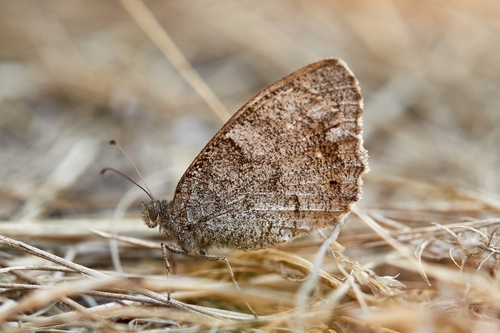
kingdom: Animalia
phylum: Arthropoda
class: Insecta
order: Lepidoptera
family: Nymphalidae
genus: Hipparchia
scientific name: Hipparchia statilinus
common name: Tree grayling
